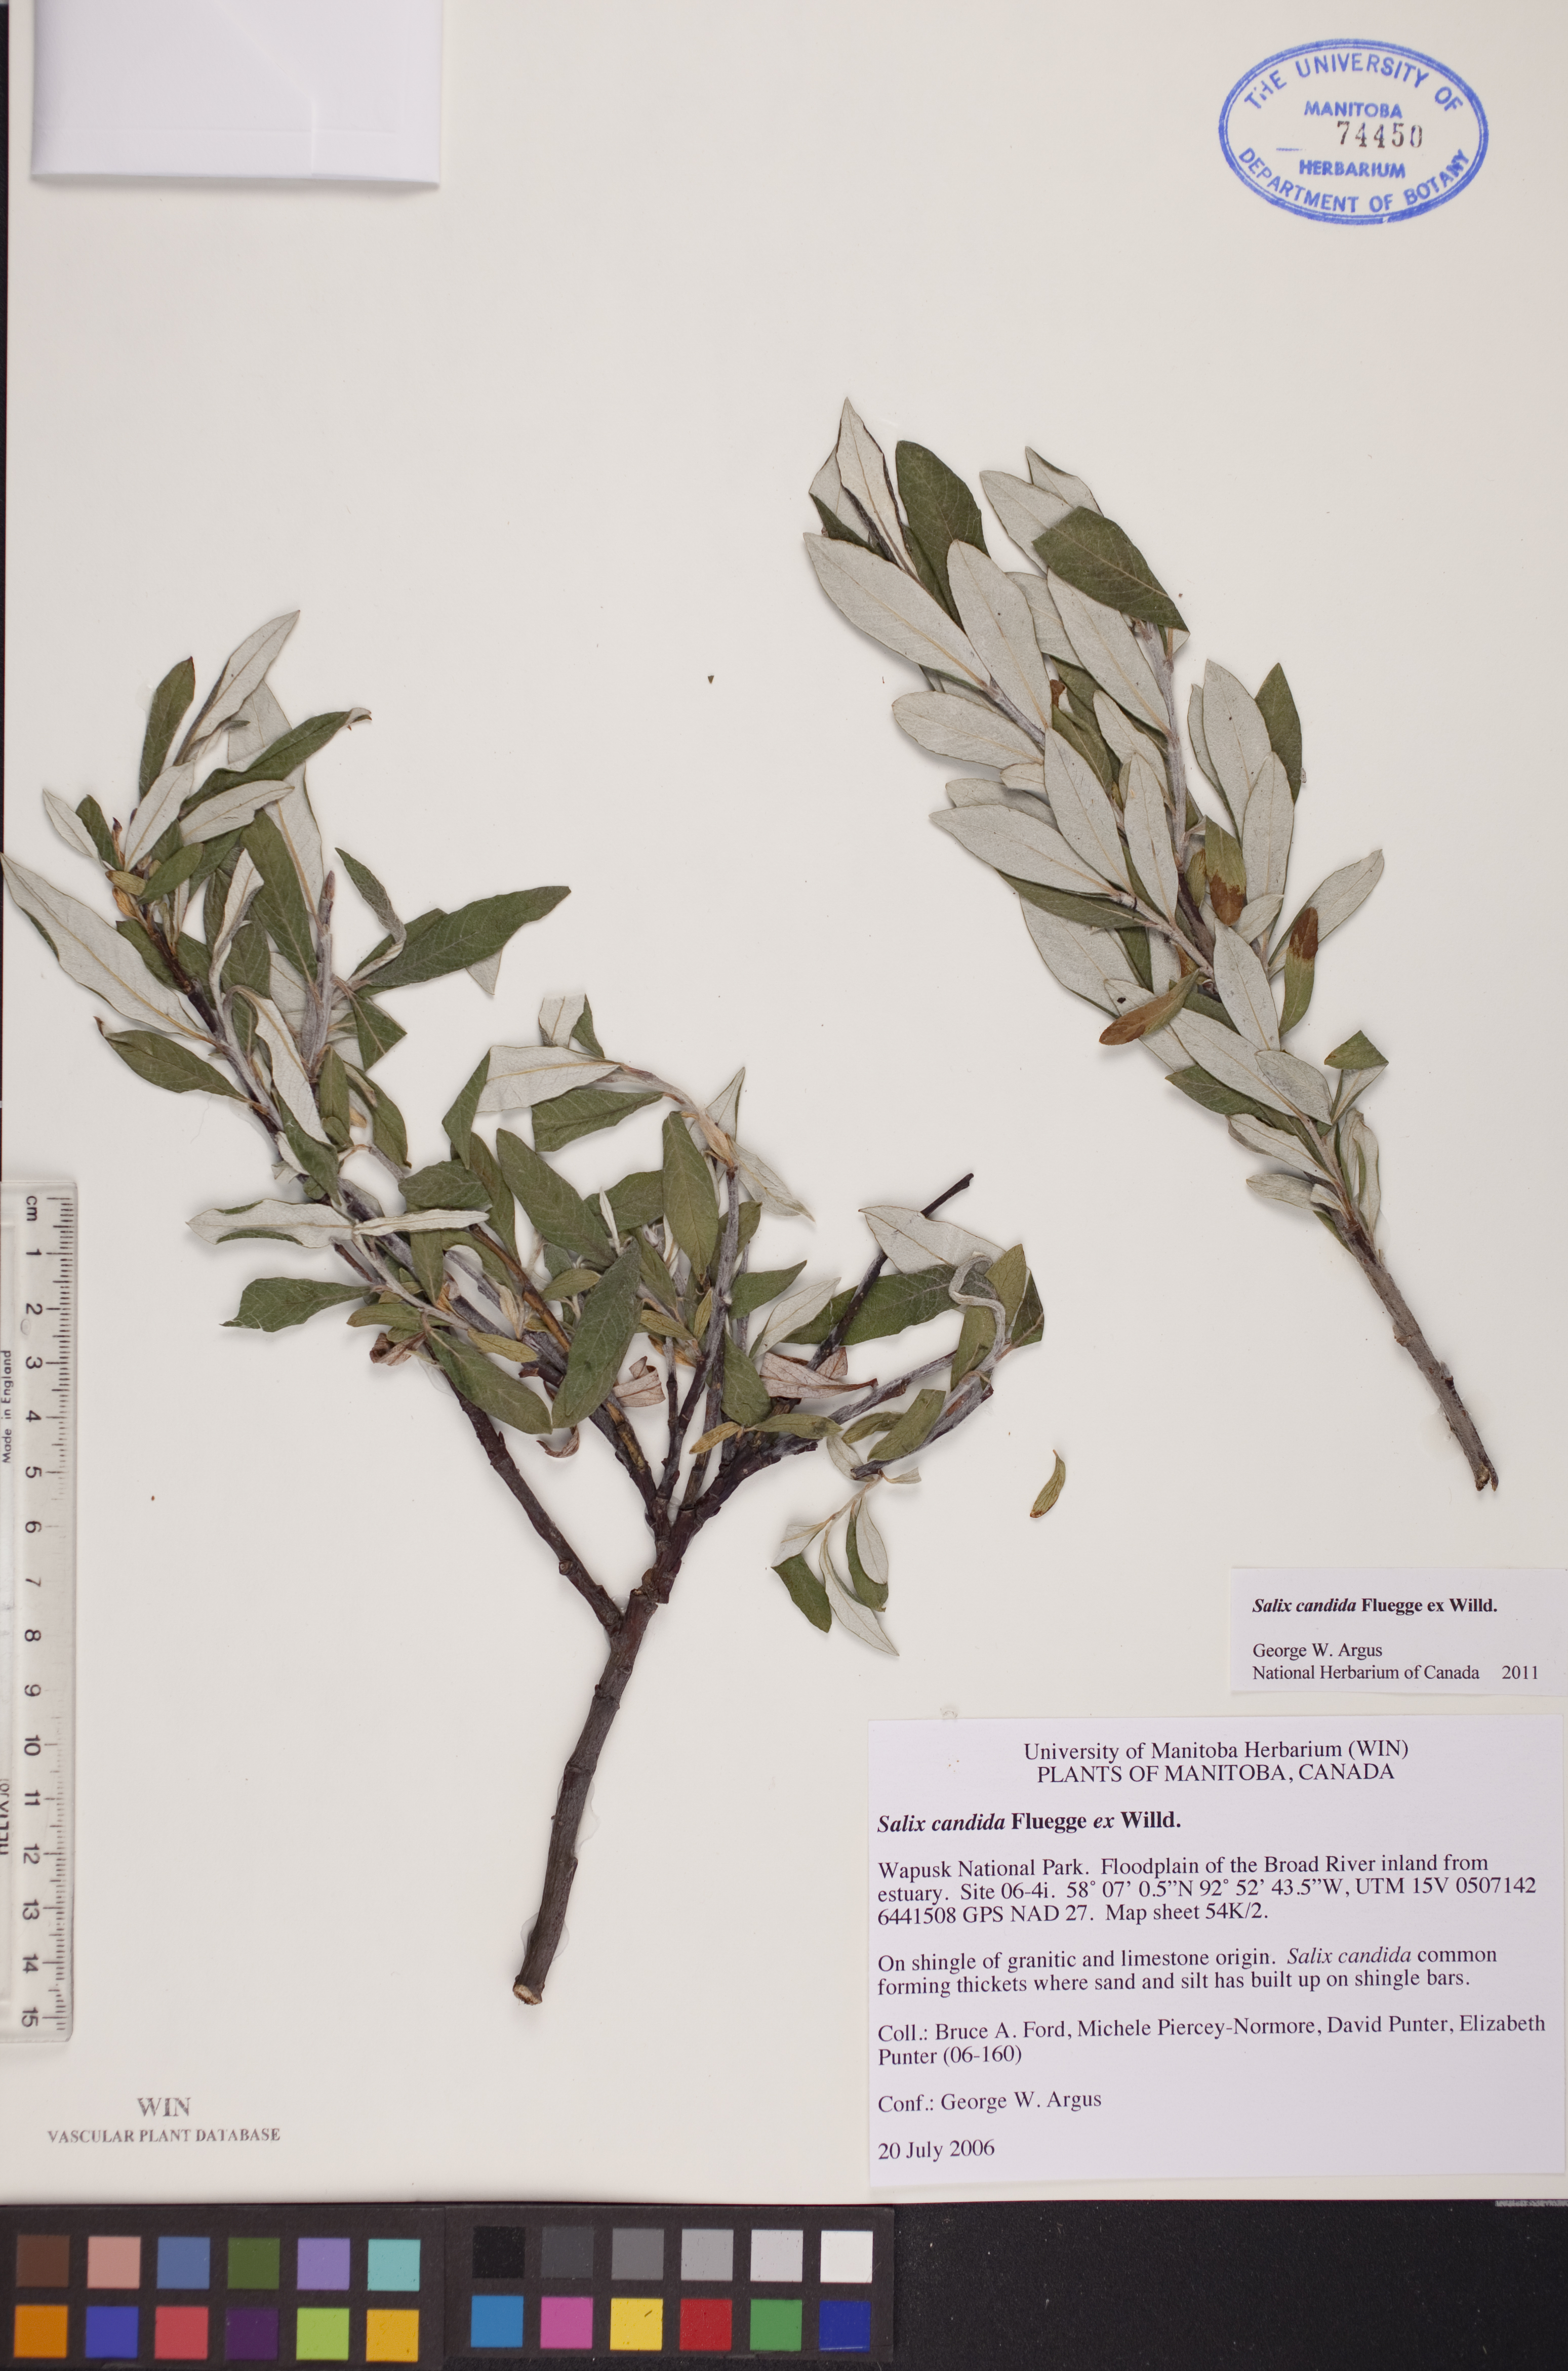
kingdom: Plantae
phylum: Tracheophyta
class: Magnoliopsida
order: Malpighiales
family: Salicaceae
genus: Salix
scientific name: Salix candida
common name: Hoary willow
